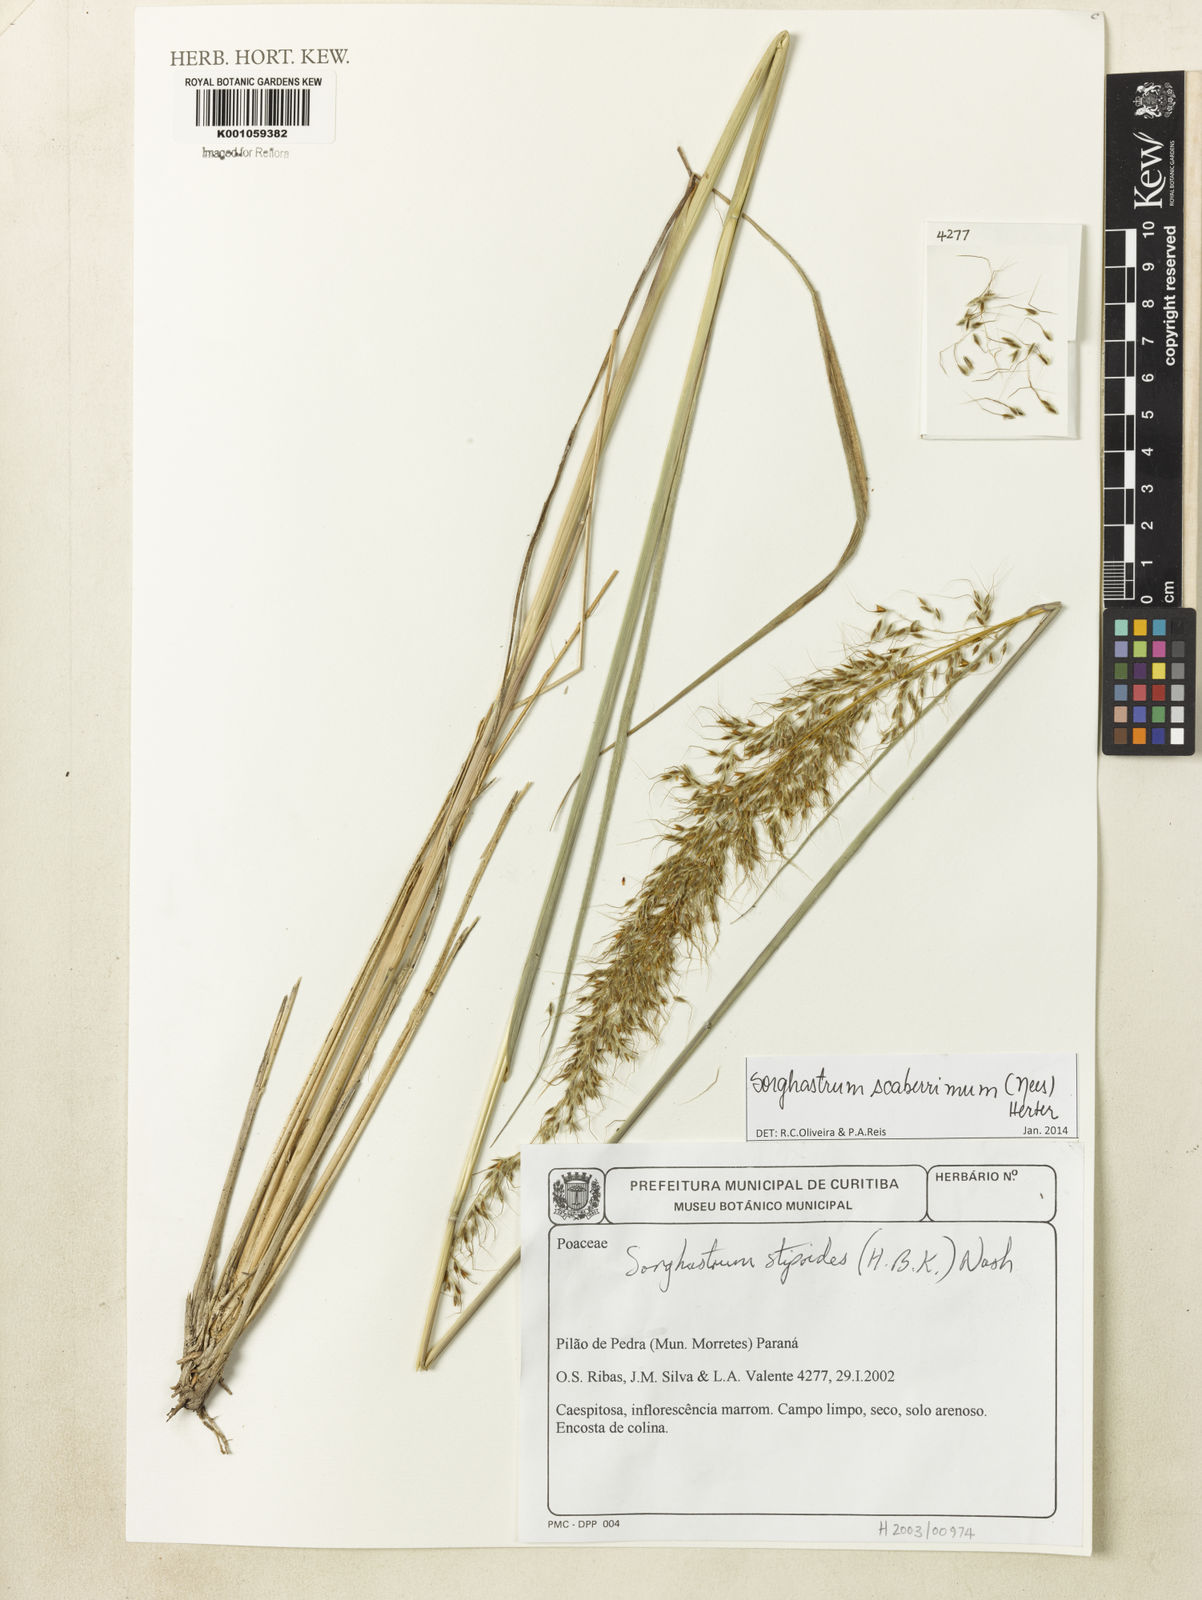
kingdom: Plantae
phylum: Tracheophyta
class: Liliopsida
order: Poales
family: Poaceae
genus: Sorghastrum
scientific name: Sorghastrum scaberrimum
